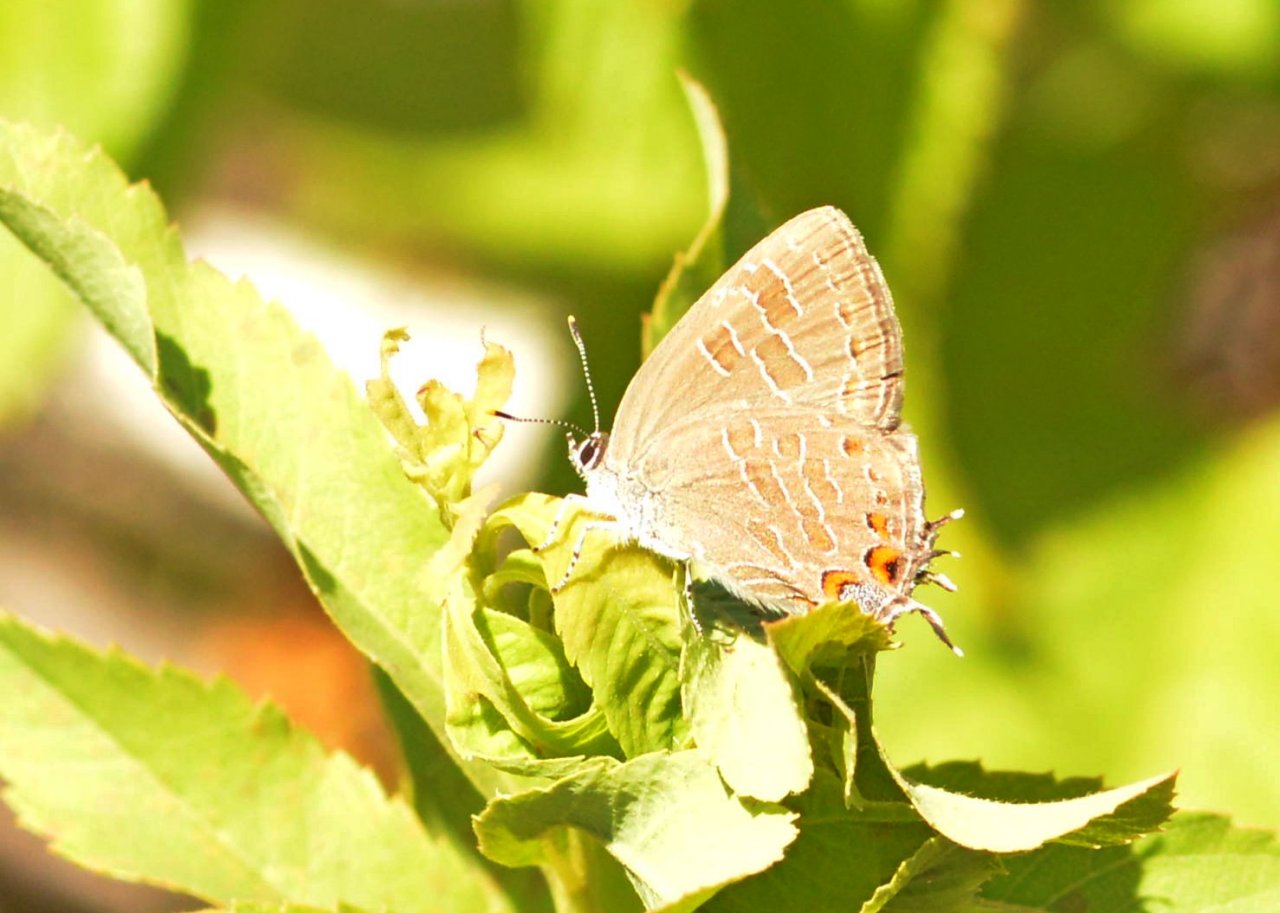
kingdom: Animalia
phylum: Arthropoda
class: Insecta
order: Lepidoptera
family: Lycaenidae
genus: Satyrium
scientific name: Satyrium liparops
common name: Striped Hairstreak
